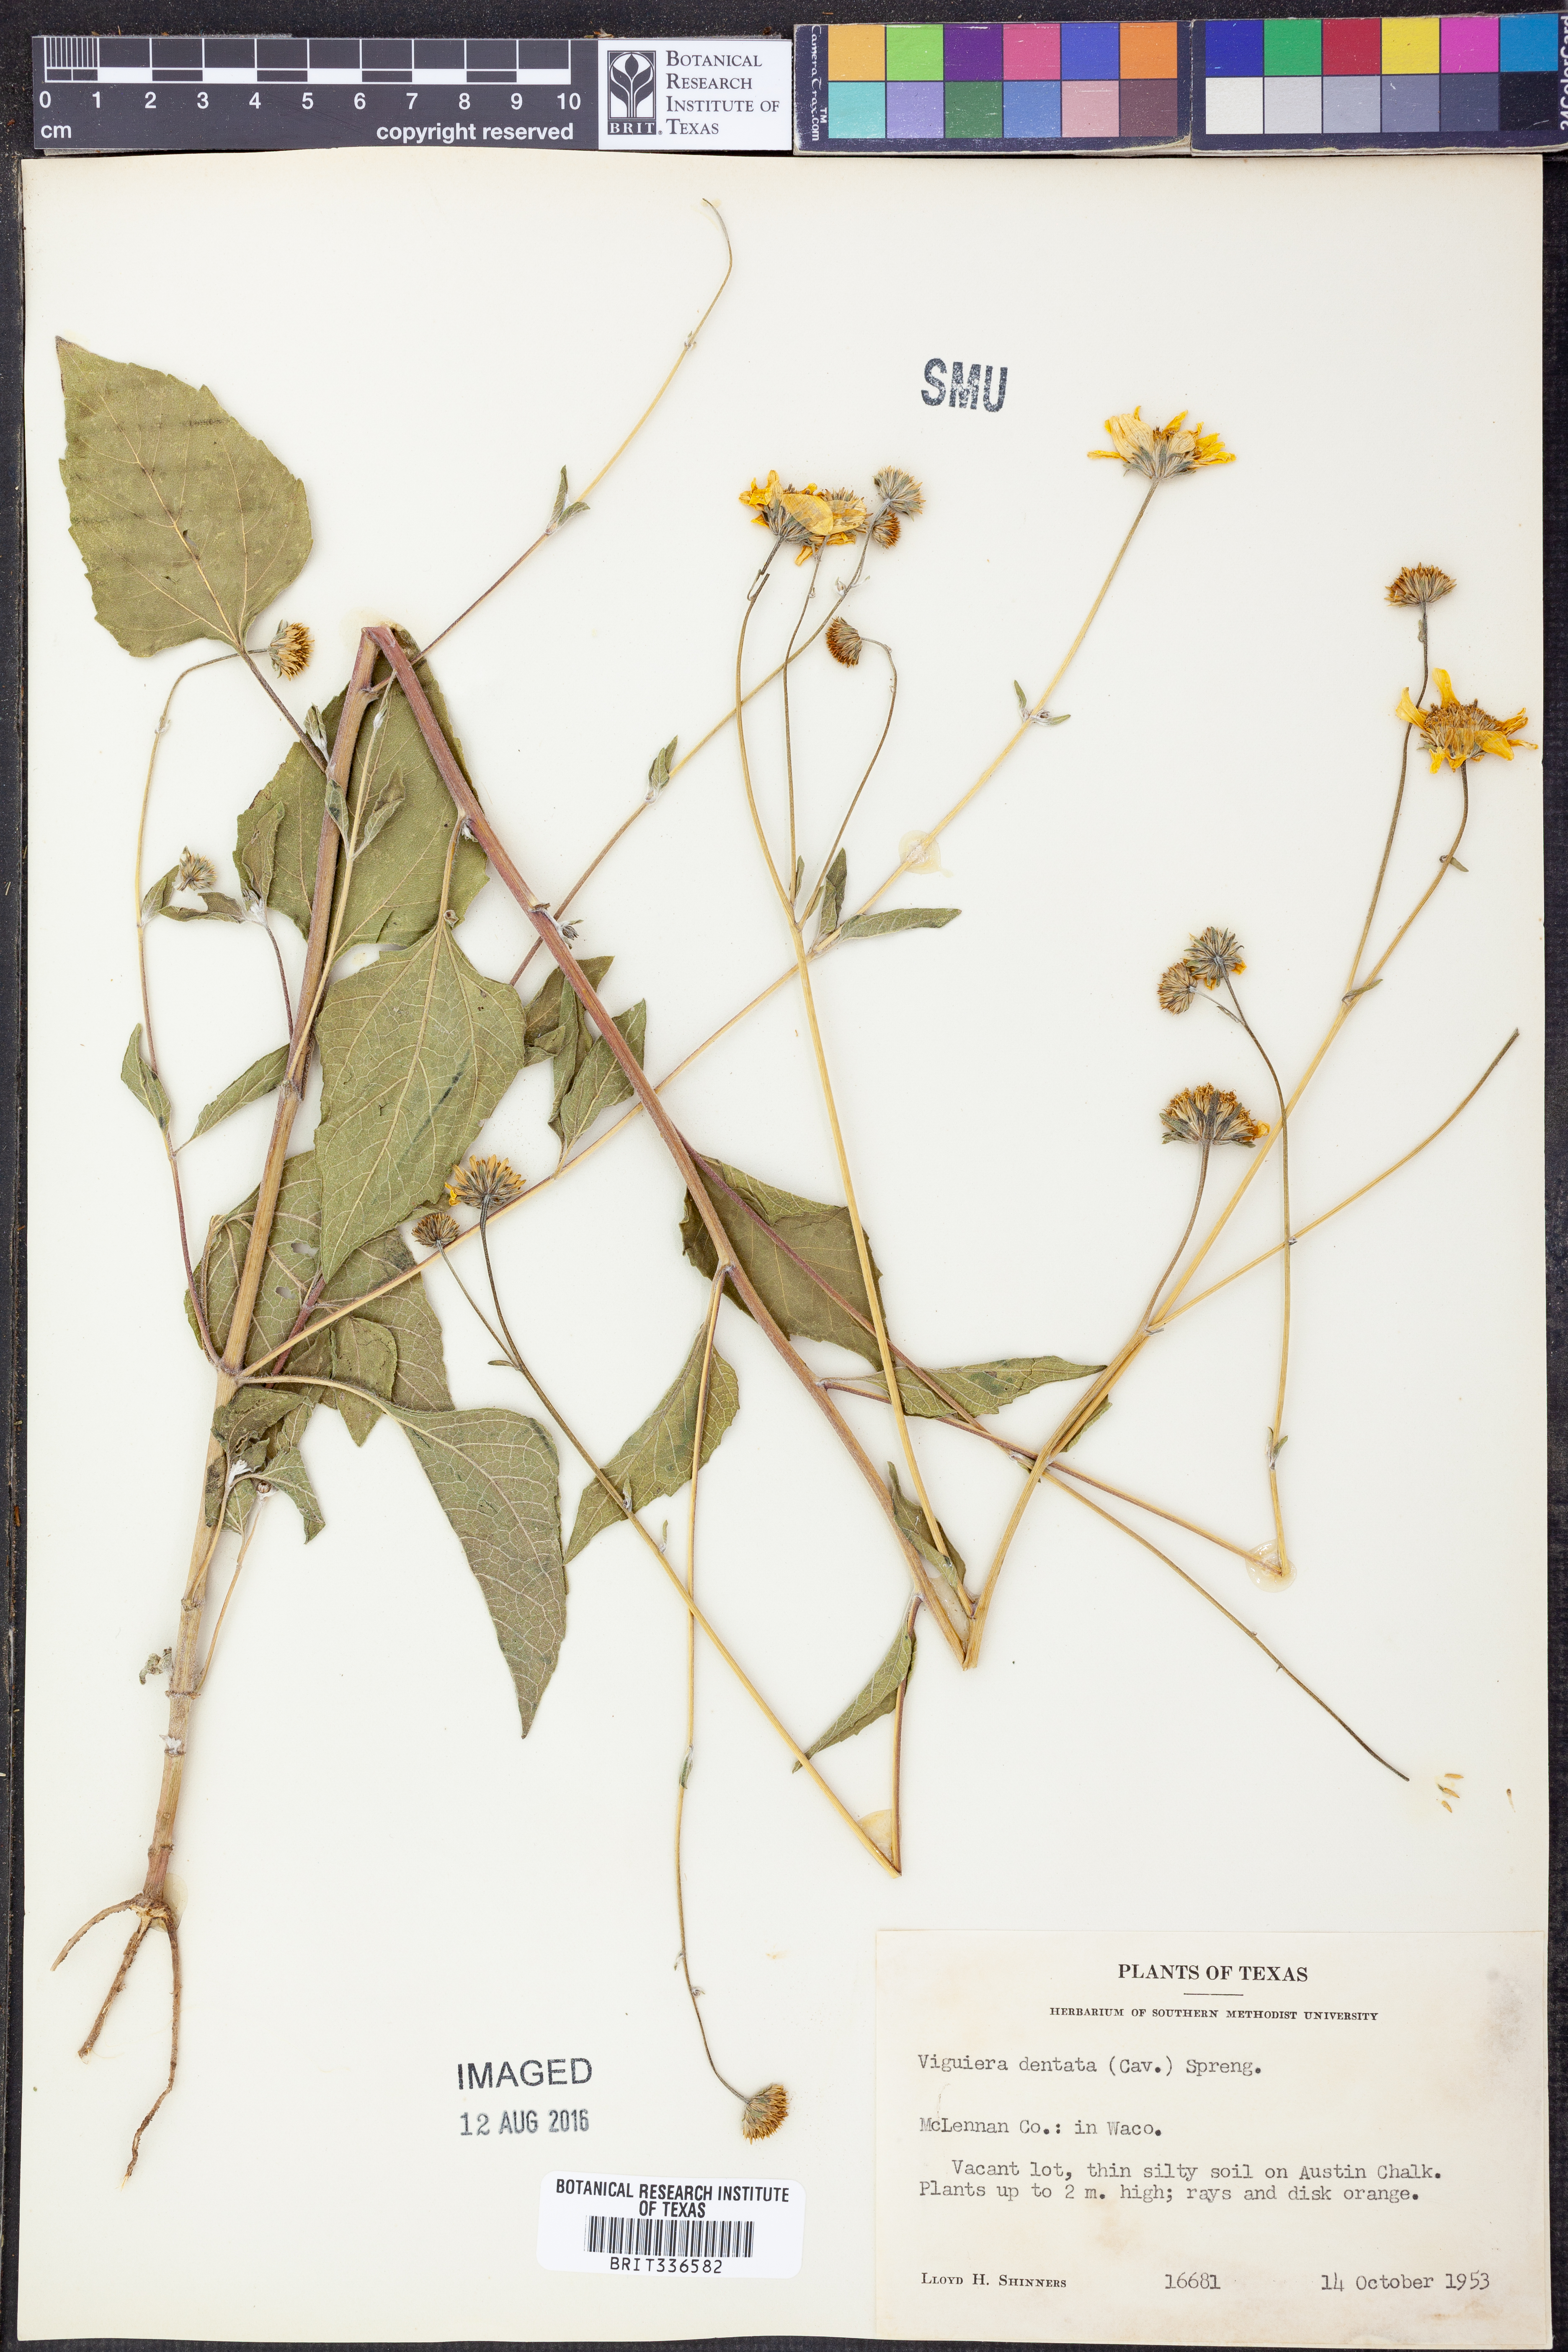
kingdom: Plantae
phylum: Tracheophyta
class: Magnoliopsida
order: Asterales
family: Asteraceae
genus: Viguiera
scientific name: Viguiera dentata
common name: Toothleaf
